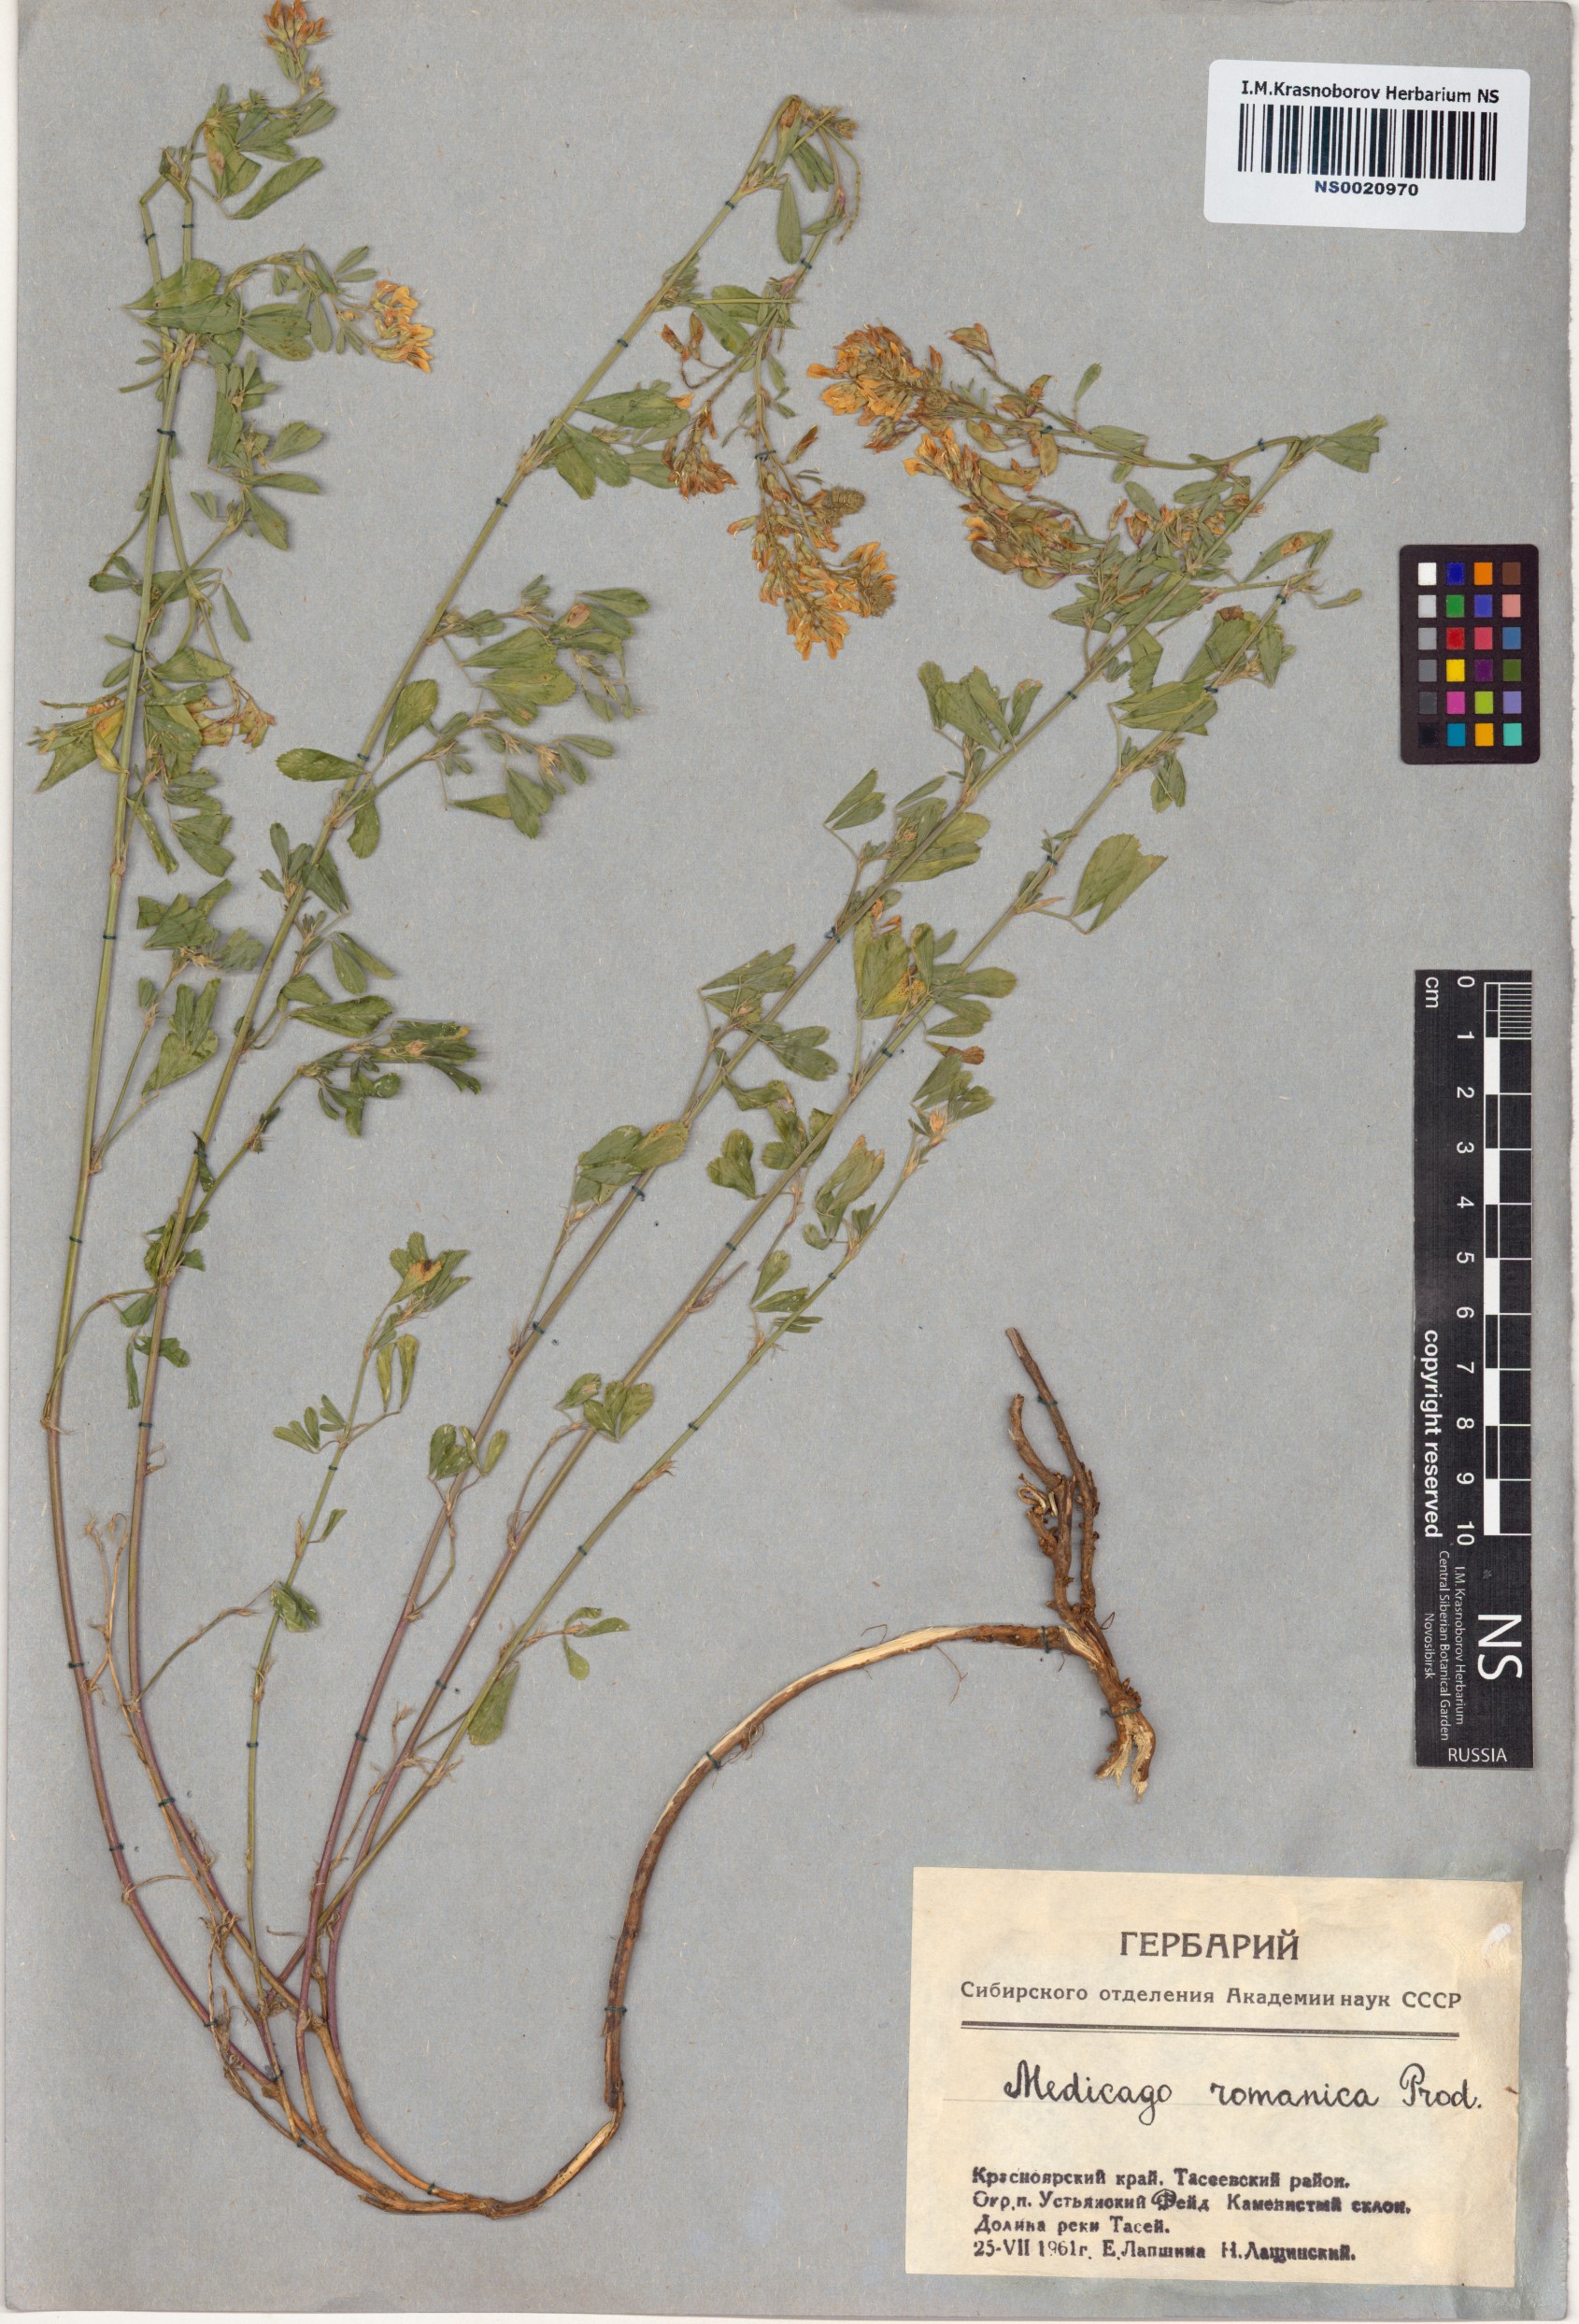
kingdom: Plantae
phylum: Tracheophyta
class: Magnoliopsida
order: Fabales
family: Fabaceae
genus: Medicago
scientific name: Medicago falcata
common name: Sickle medick
